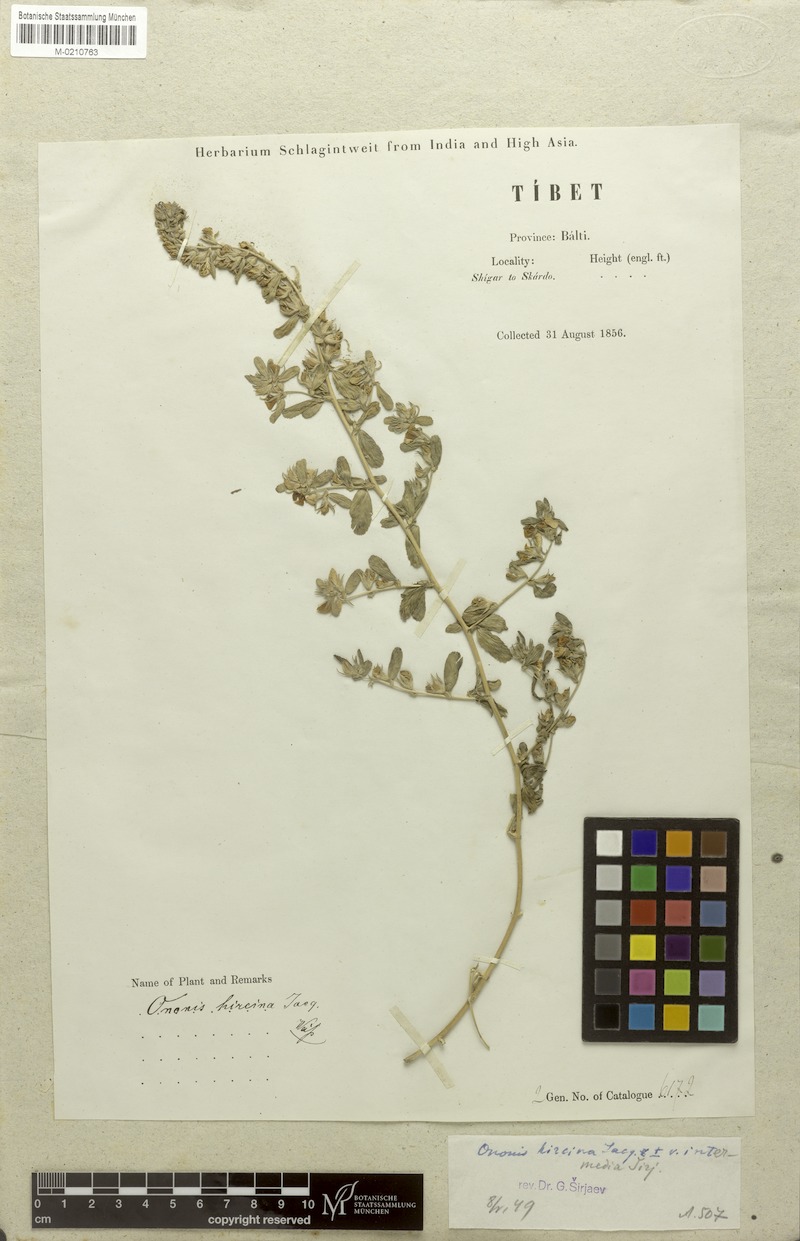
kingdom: Plantae
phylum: Tracheophyta
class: Magnoliopsida
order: Fabales
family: Fabaceae
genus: Ononis
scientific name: Ononis arvensis
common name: Field restharrow
